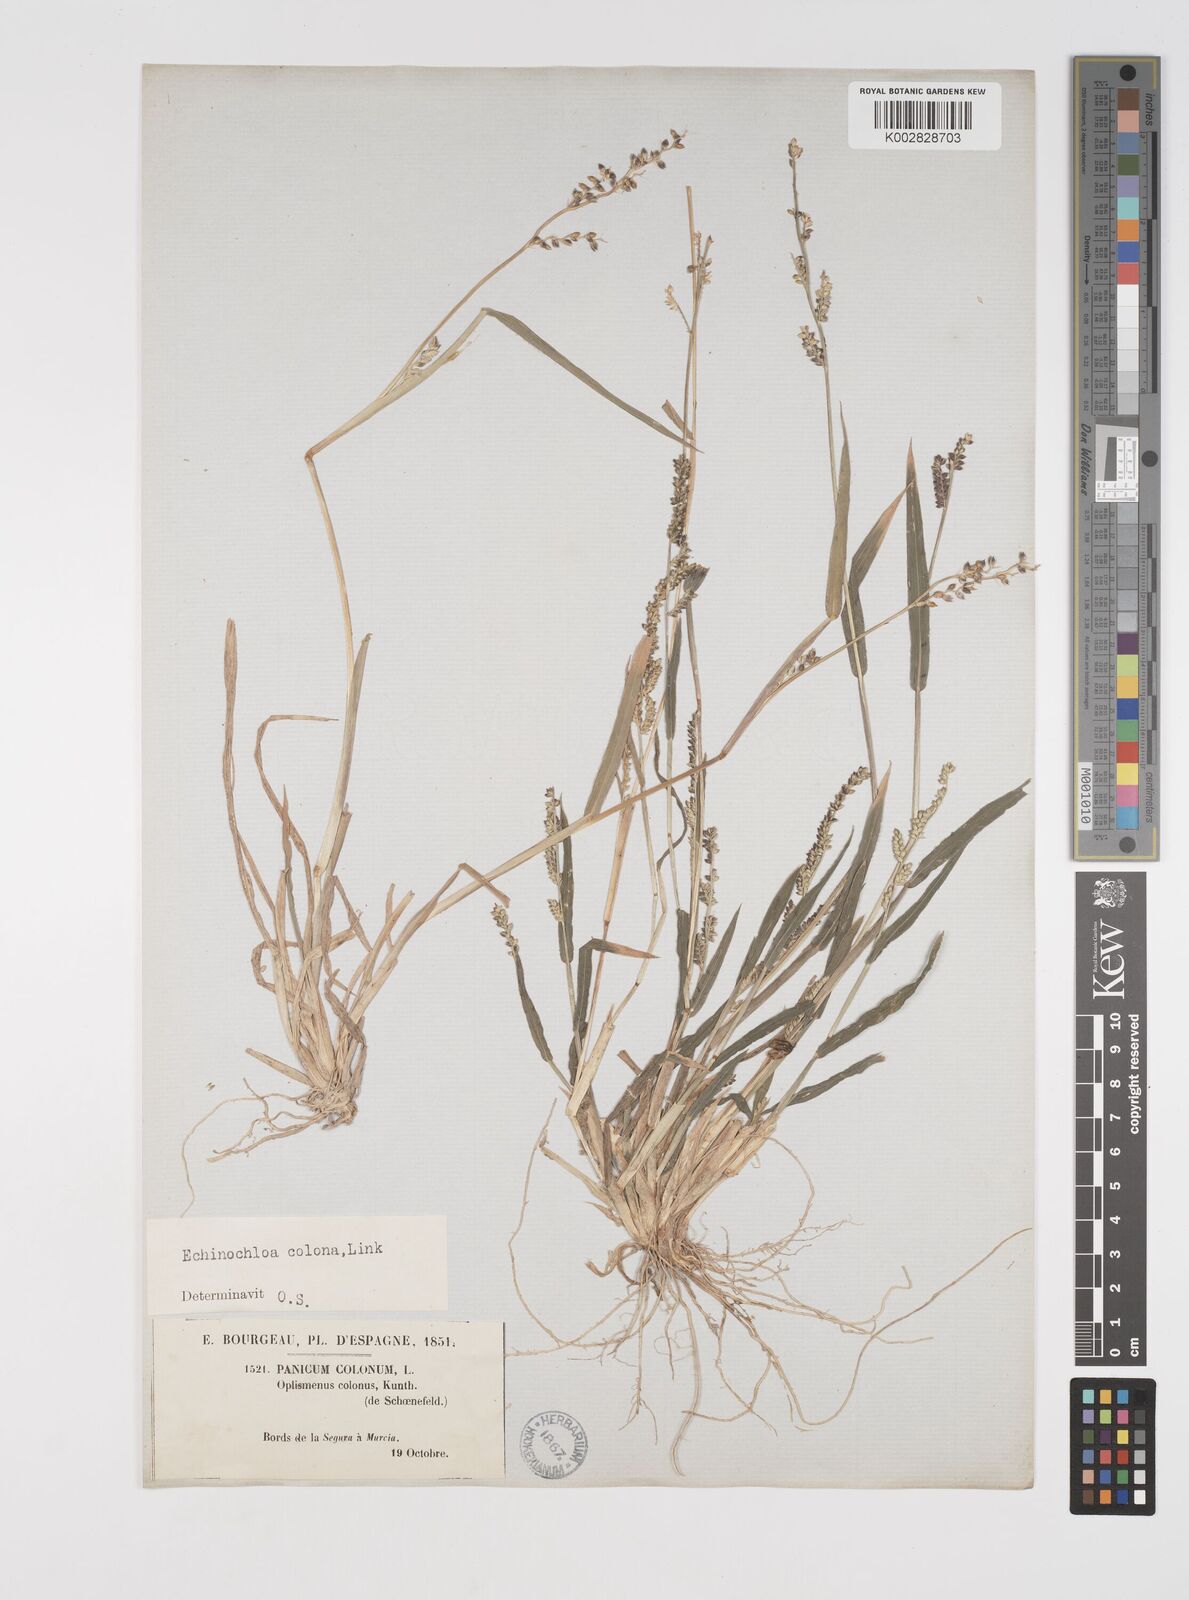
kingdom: Plantae
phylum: Tracheophyta
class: Liliopsida
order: Poales
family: Poaceae
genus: Echinochloa
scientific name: Echinochloa colonum
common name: Jungle rice
